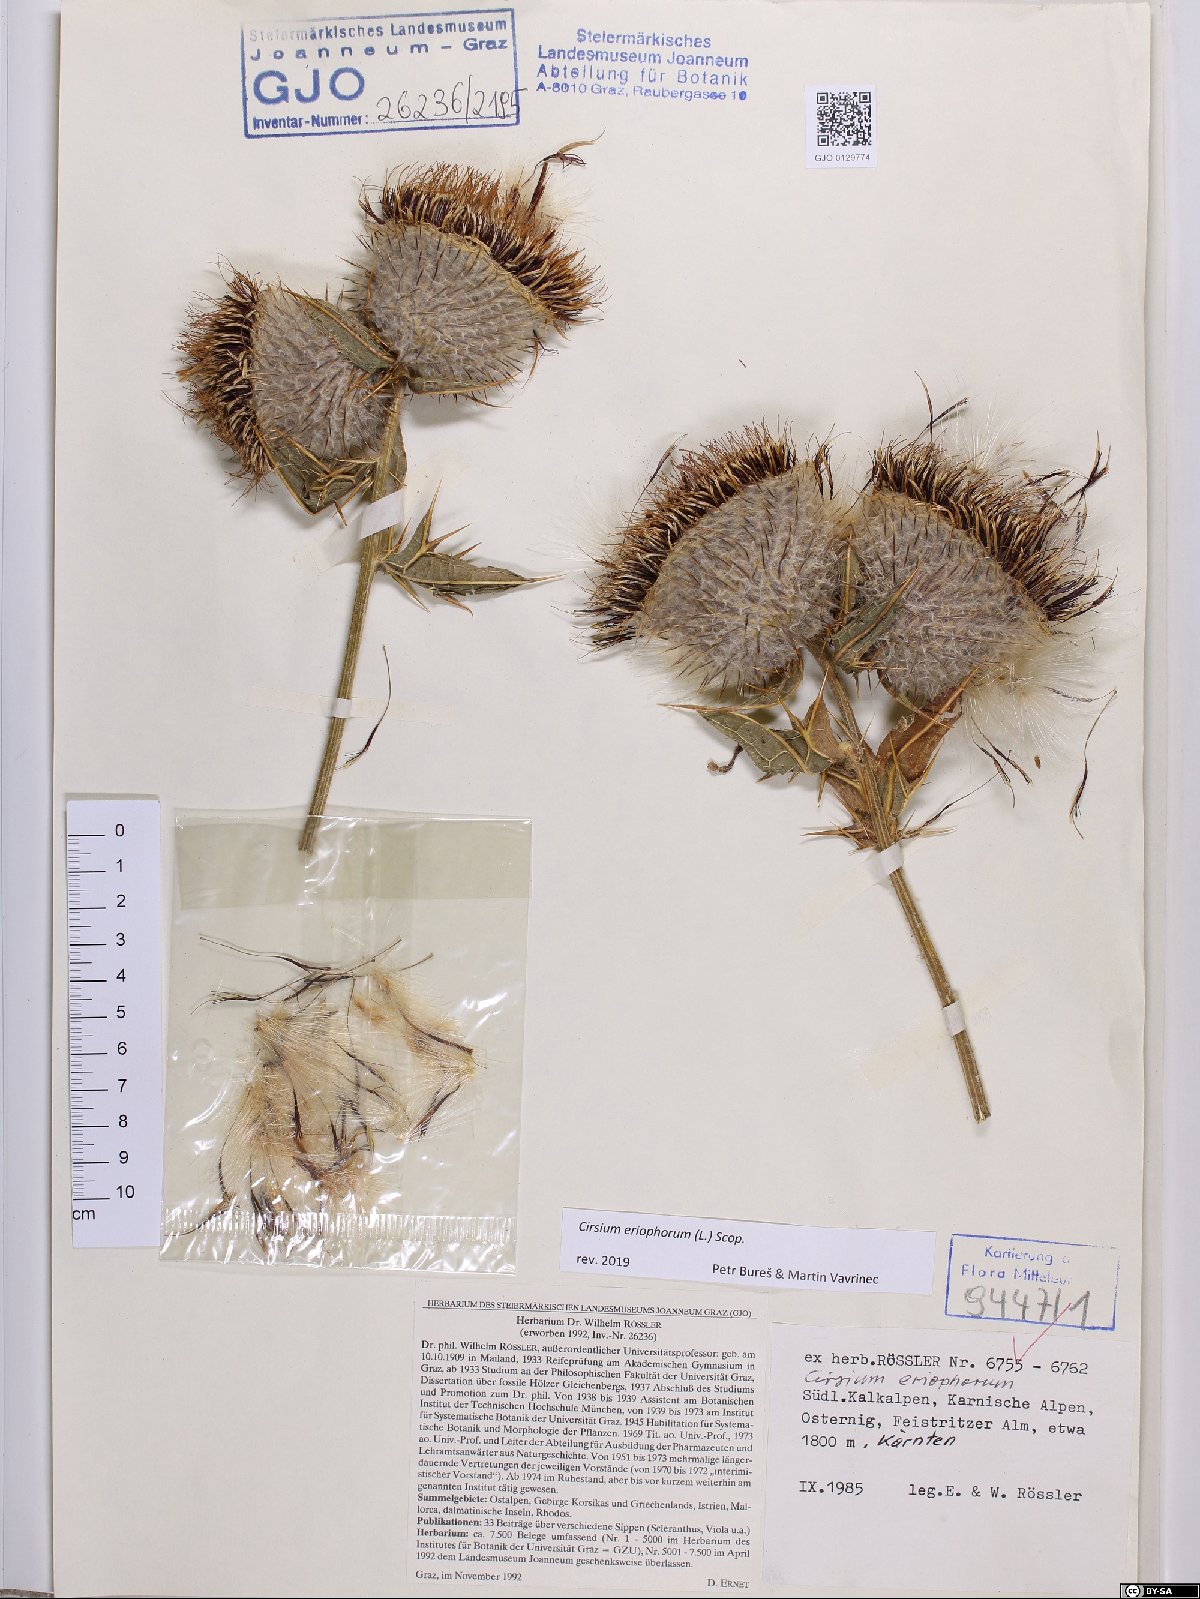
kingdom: Plantae
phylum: Tracheophyta
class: Magnoliopsida
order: Asterales
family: Asteraceae
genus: Lophiolepis
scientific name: Lophiolepis eriophora
